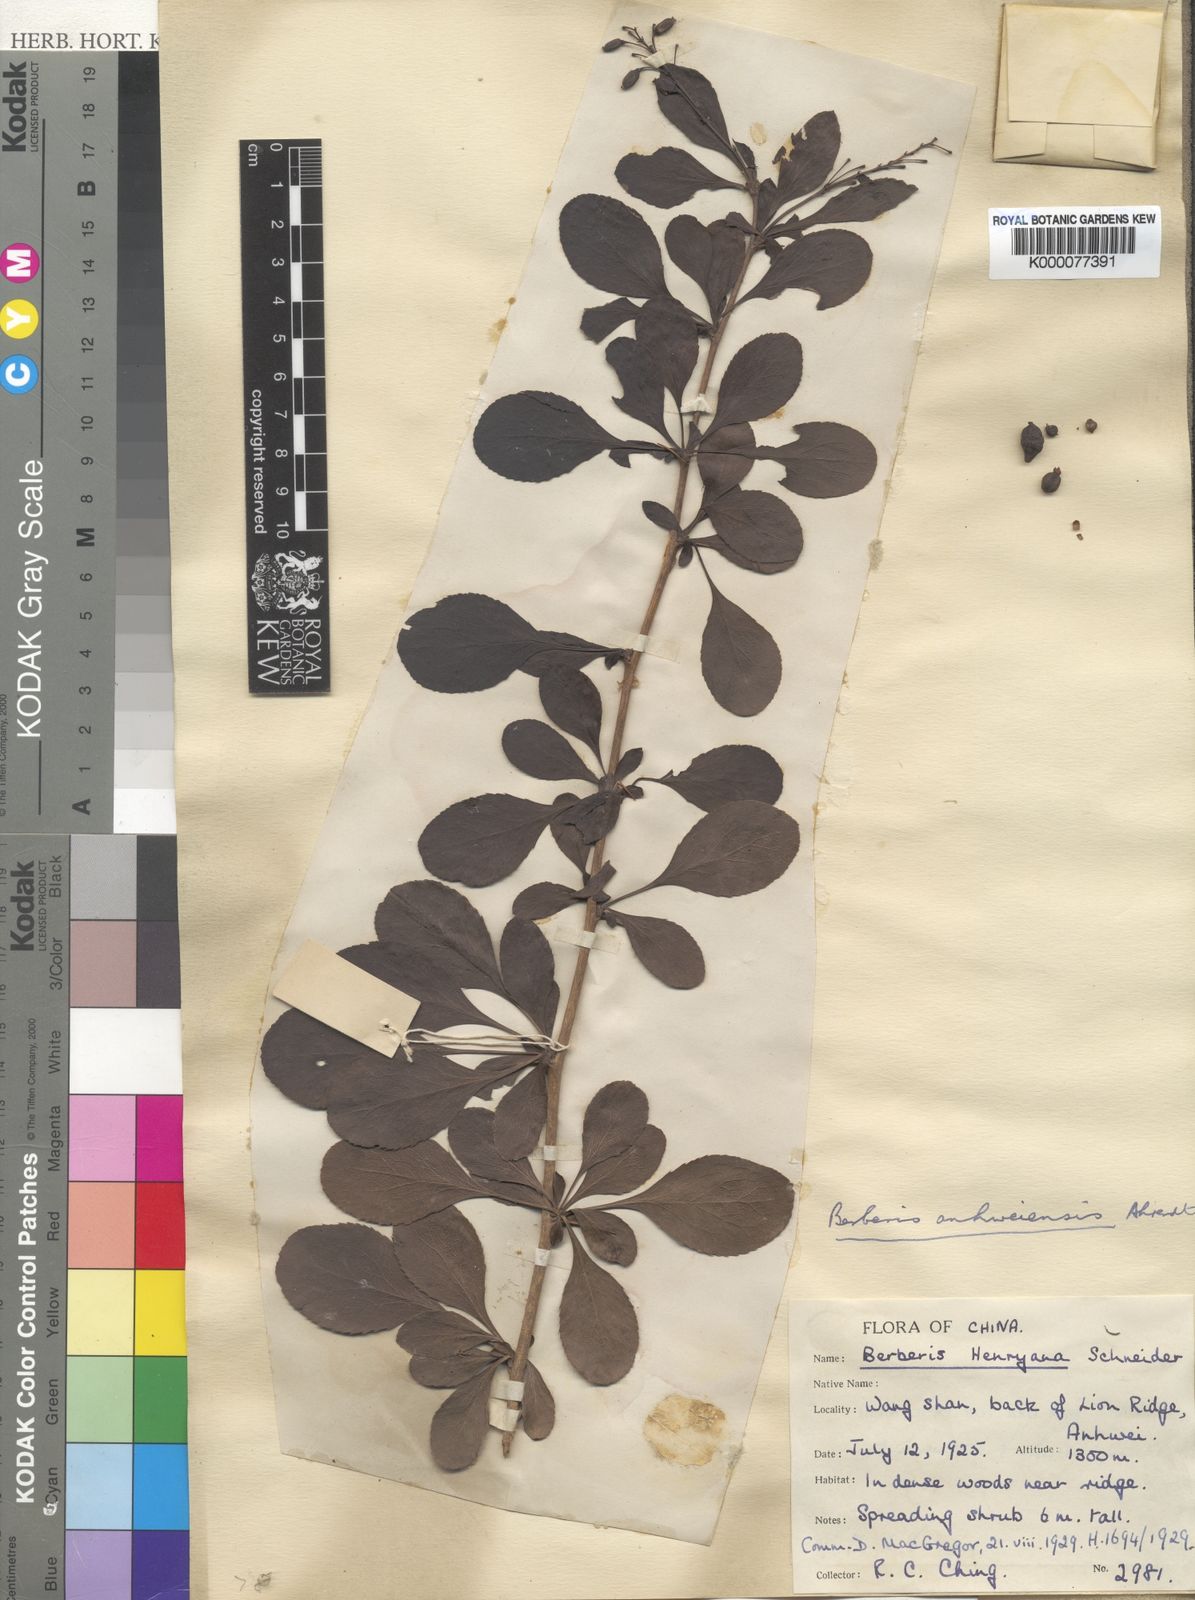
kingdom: Plantae
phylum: Tracheophyta
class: Magnoliopsida
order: Ranunculales
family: Berberidaceae
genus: Berberis
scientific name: Berberis anhweiensis
